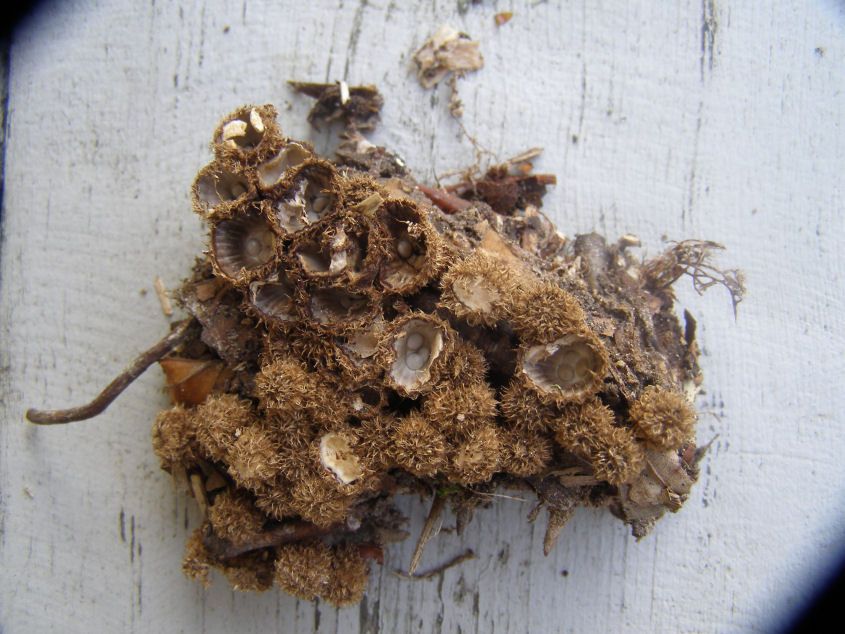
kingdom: Fungi
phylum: Basidiomycota
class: Agaricomycetes
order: Agaricales
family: Agaricaceae
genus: Cyathus
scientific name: Cyathus striatus
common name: stribet redesvamp
